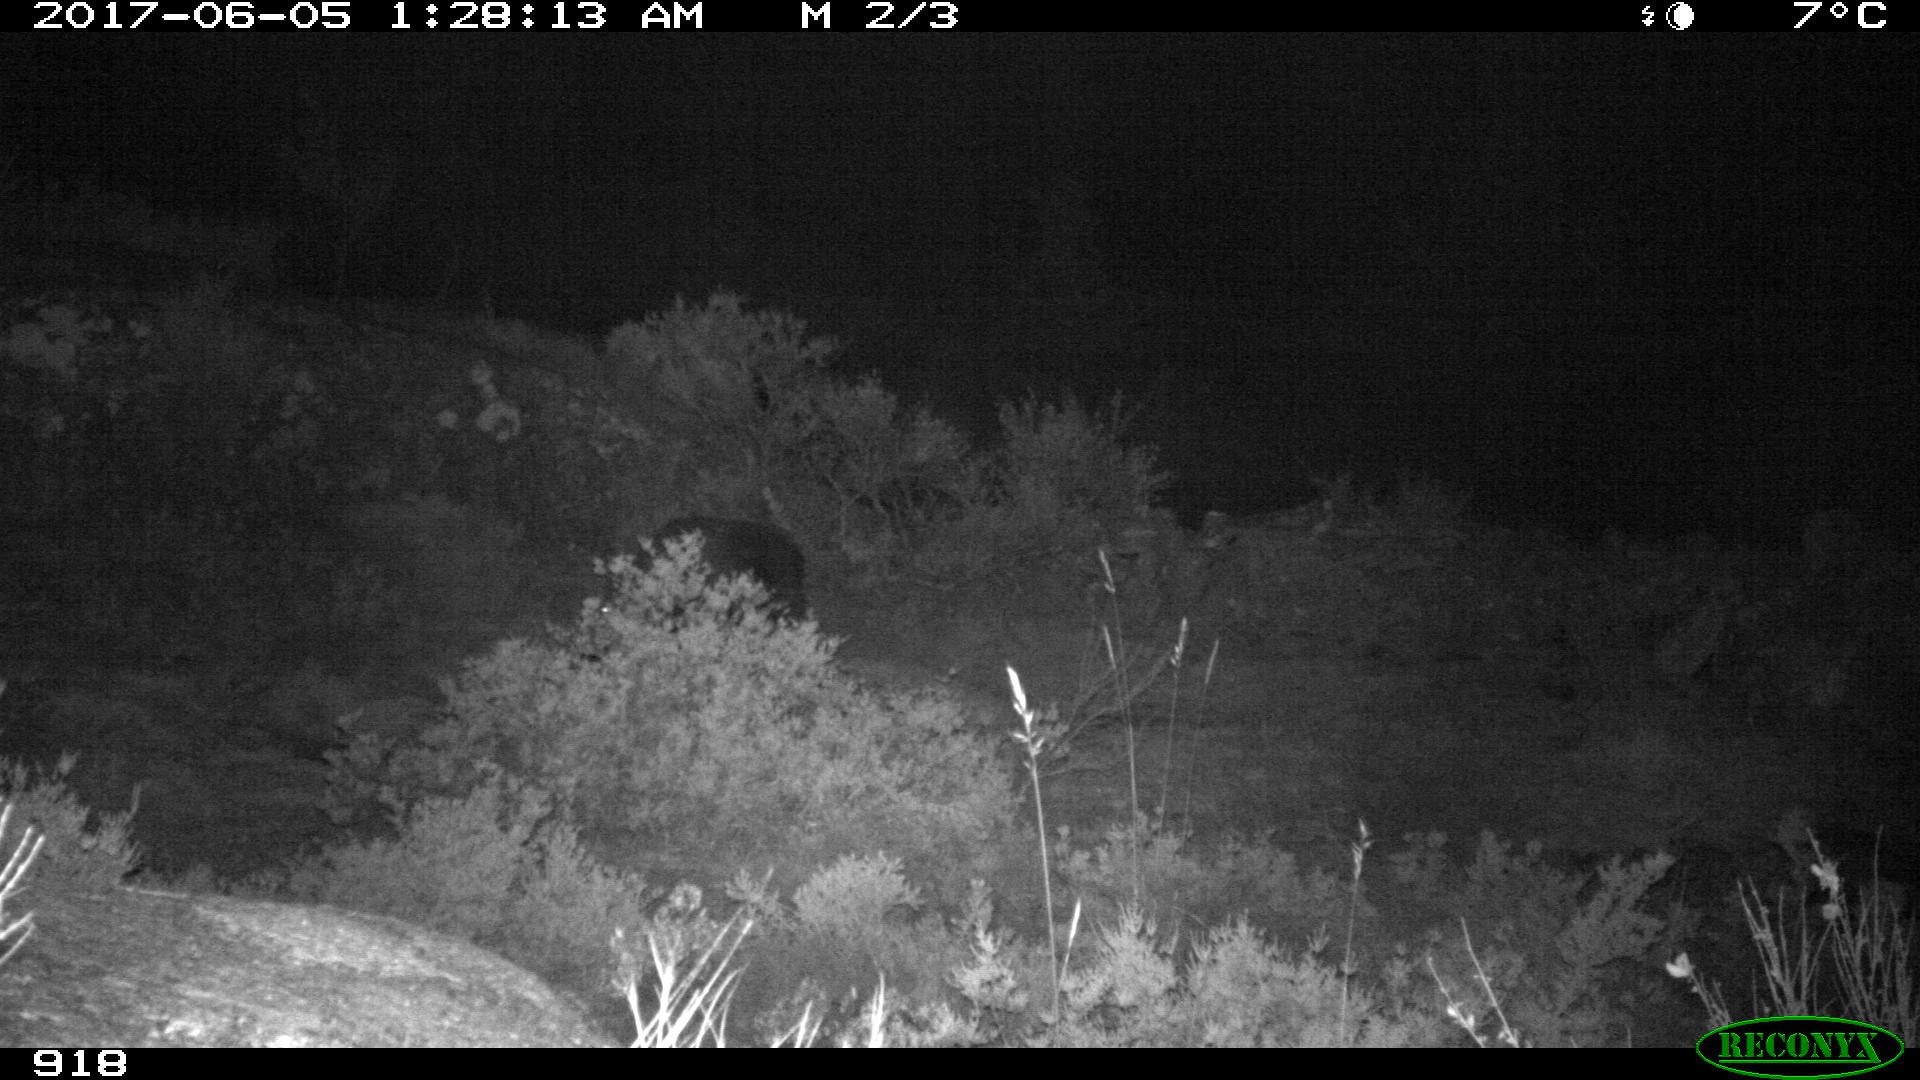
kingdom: Animalia
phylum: Chordata
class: Mammalia
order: Artiodactyla
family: Suidae
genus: Sus
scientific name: Sus scrofa
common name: Wild boar
